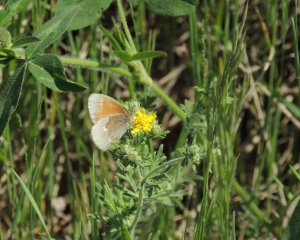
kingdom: Animalia
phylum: Arthropoda
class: Insecta
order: Lepidoptera
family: Nymphalidae
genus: Coenonympha
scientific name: Coenonympha tullia
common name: Large Heath
